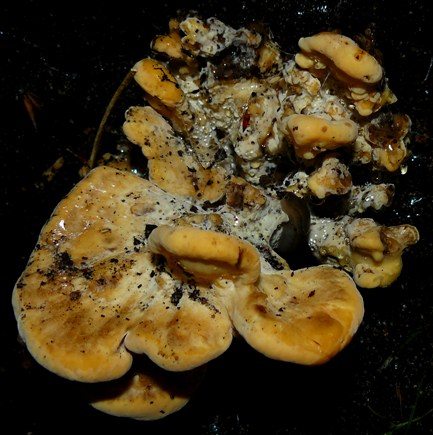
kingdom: Fungi
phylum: Basidiomycota
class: Agaricomycetes
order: Polyporales
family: Meripilaceae
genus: Meripilus
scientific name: Meripilus giganteus
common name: kæmpeporesvamp
